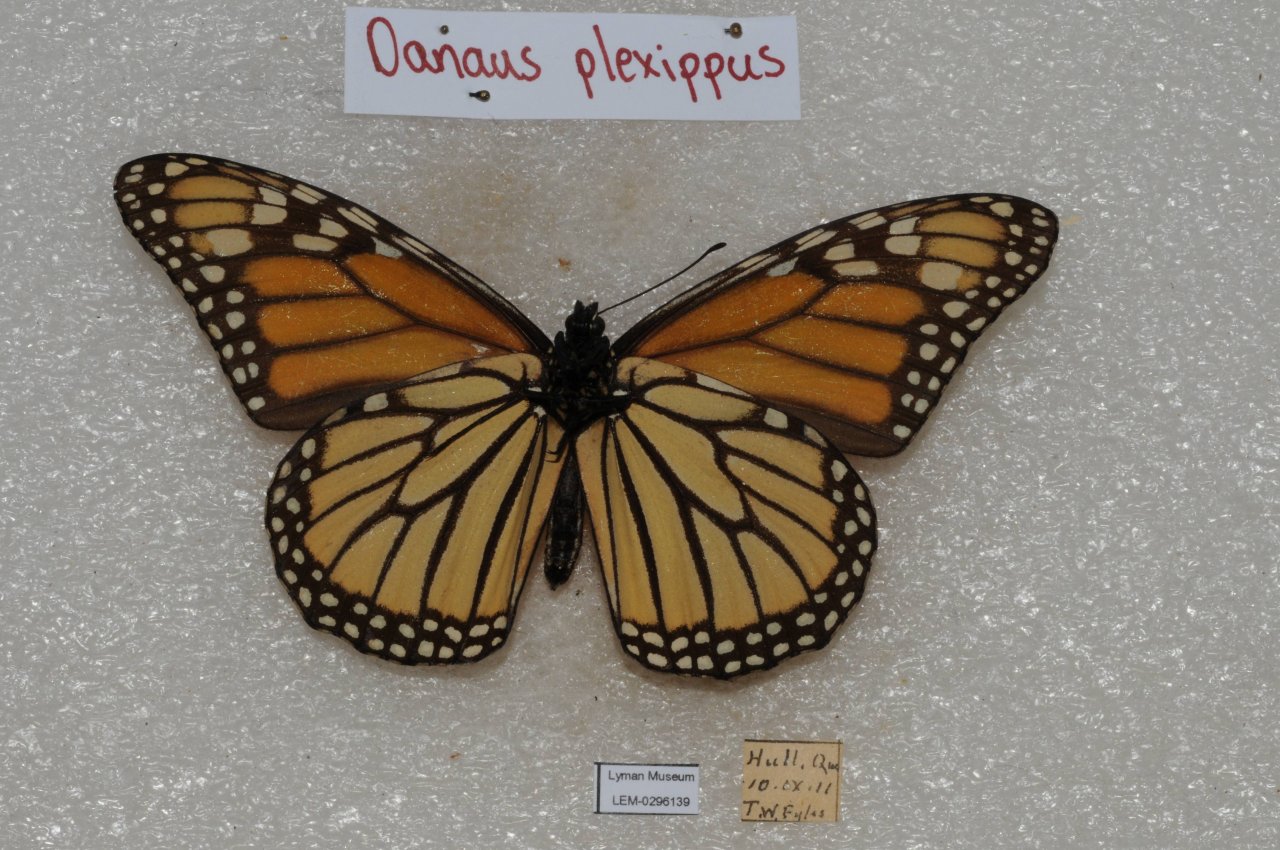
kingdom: Animalia
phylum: Arthropoda
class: Insecta
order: Lepidoptera
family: Nymphalidae
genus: Danaus
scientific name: Danaus plexippus
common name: Monarch
